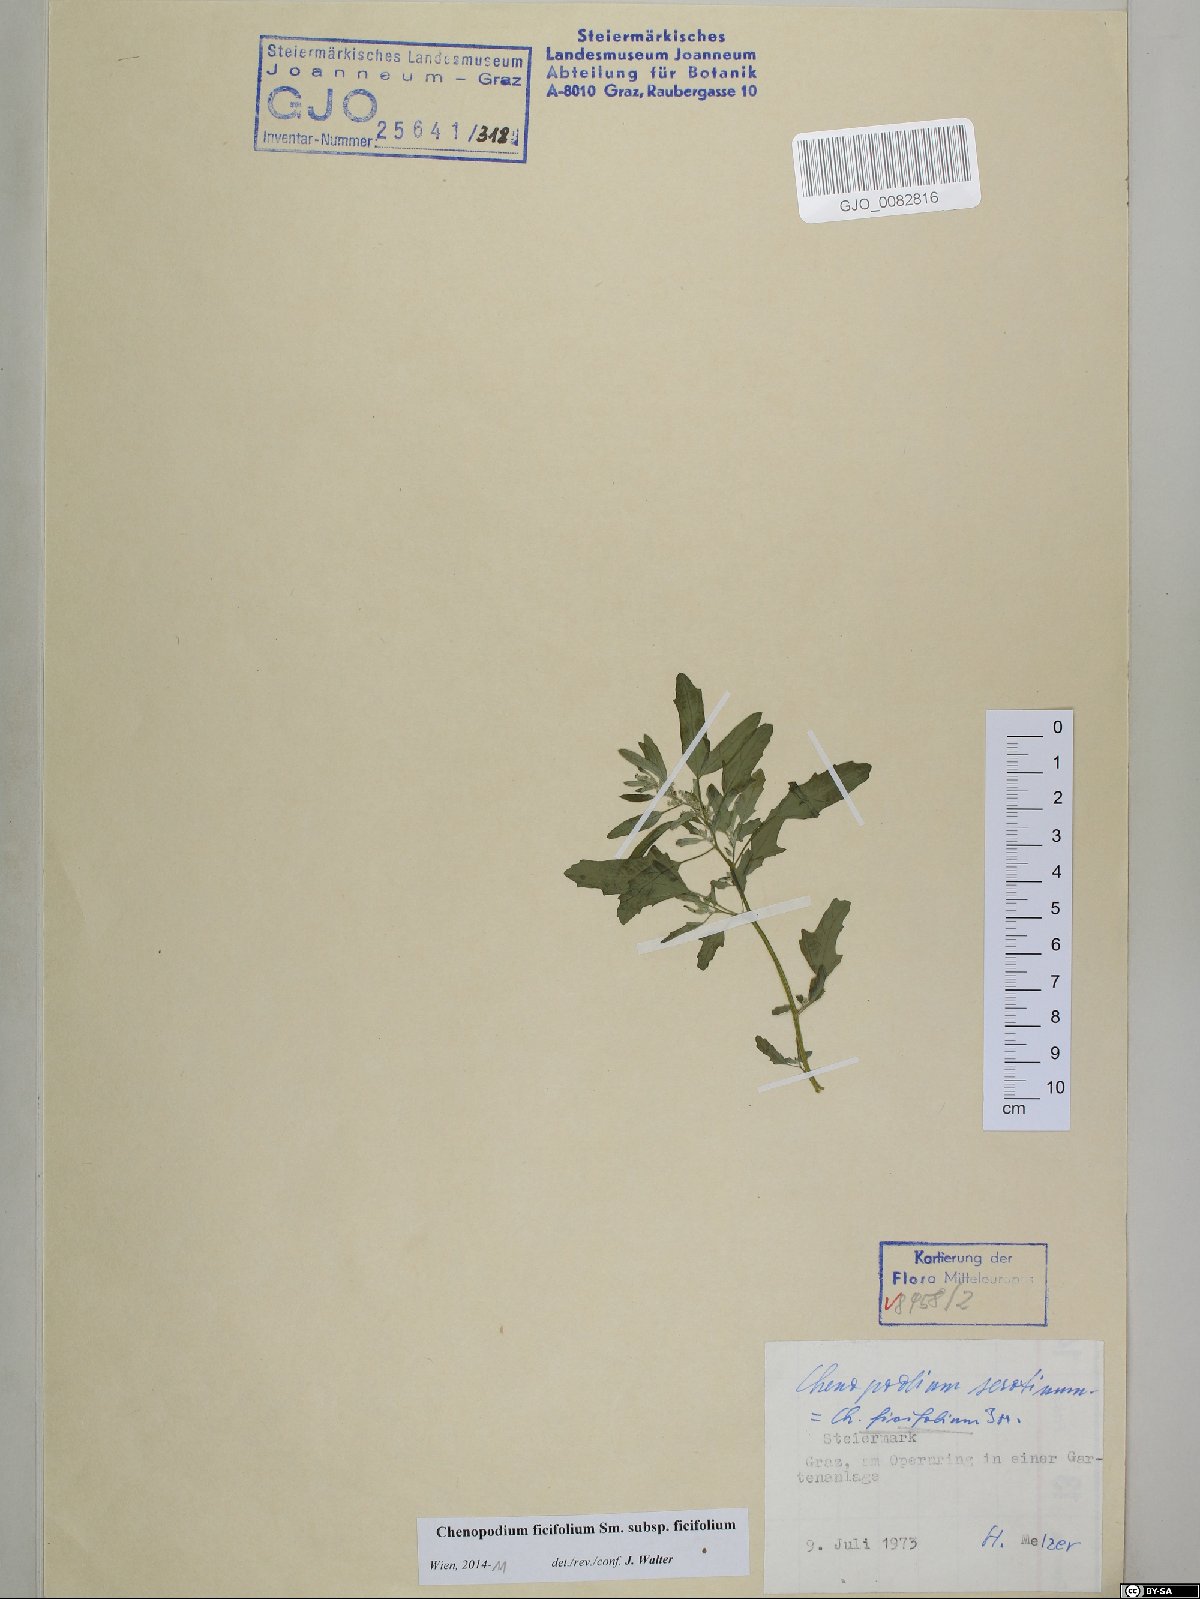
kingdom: Plantae
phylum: Tracheophyta
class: Magnoliopsida
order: Caryophyllales
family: Amaranthaceae
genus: Chenopodium
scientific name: Chenopodium ficifolium
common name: Fig-leaved goosefoot
